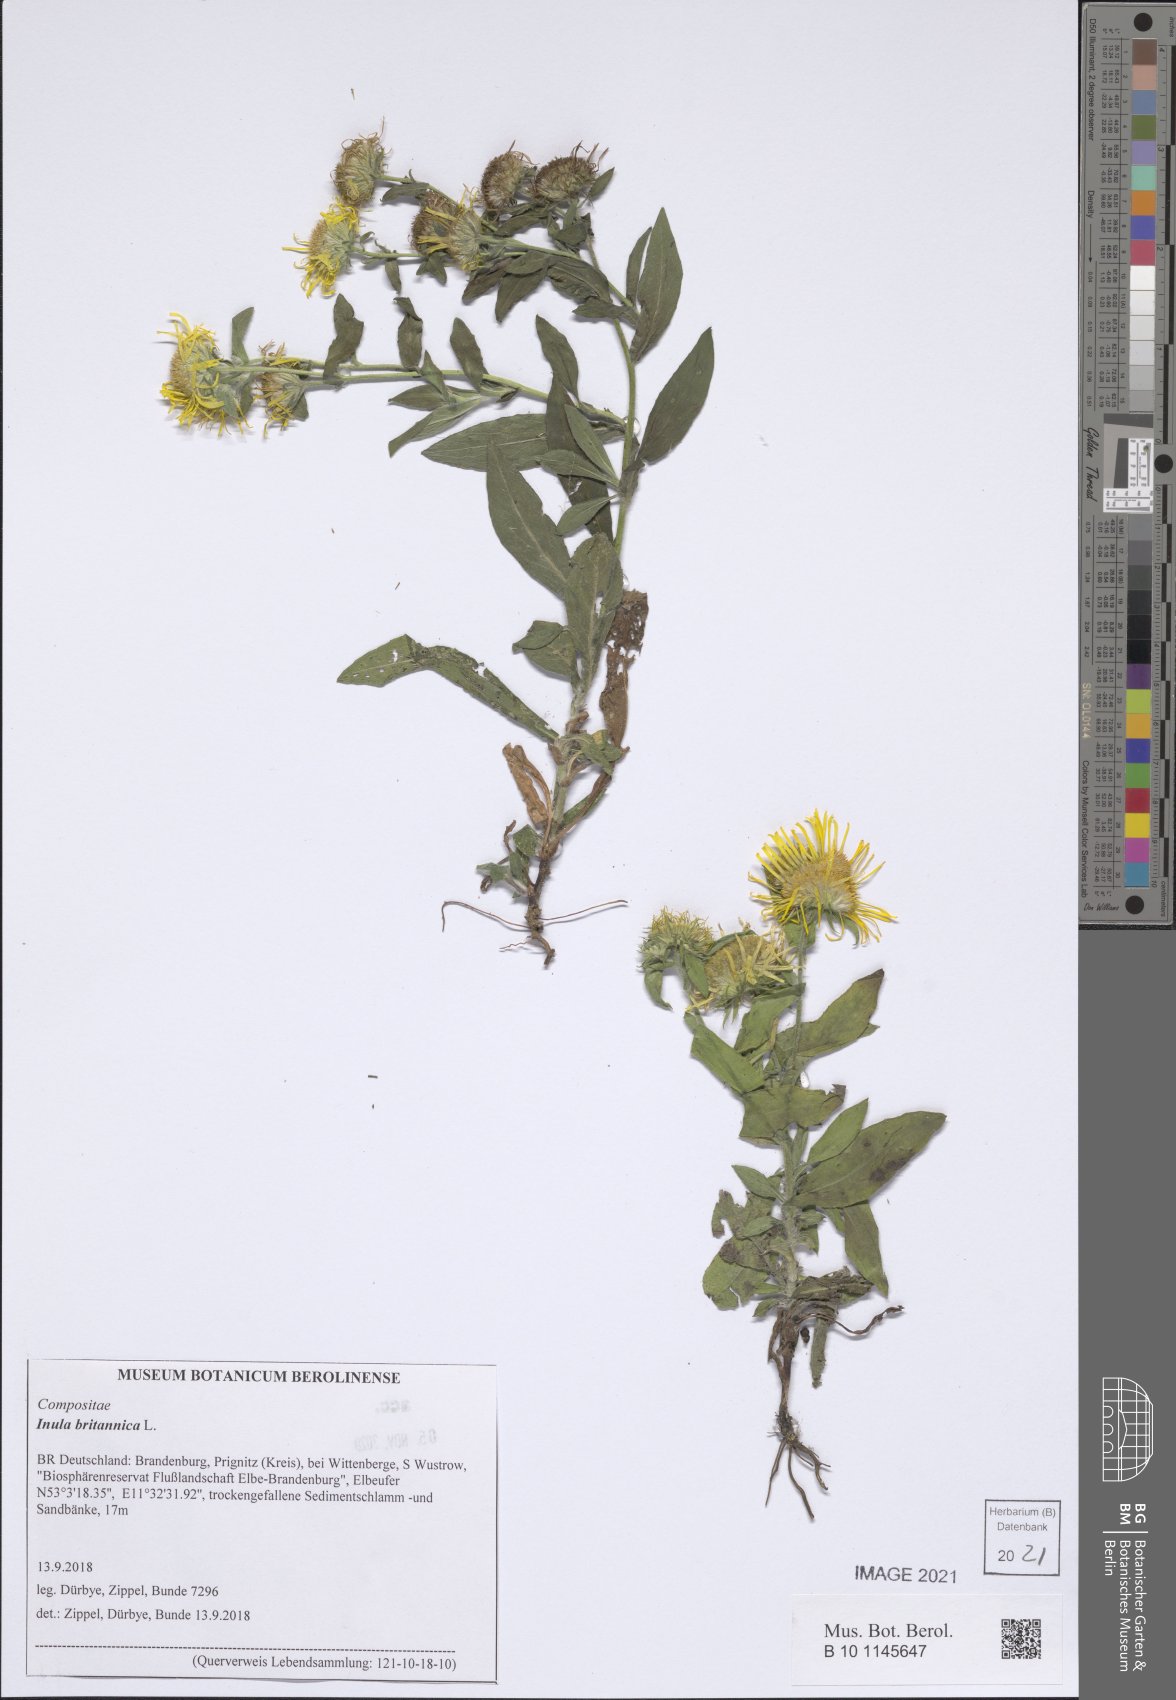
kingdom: Plantae
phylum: Tracheophyta
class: Magnoliopsida
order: Asterales
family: Asteraceae
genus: Pentanema
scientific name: Pentanema britannicum
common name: British elecampane
